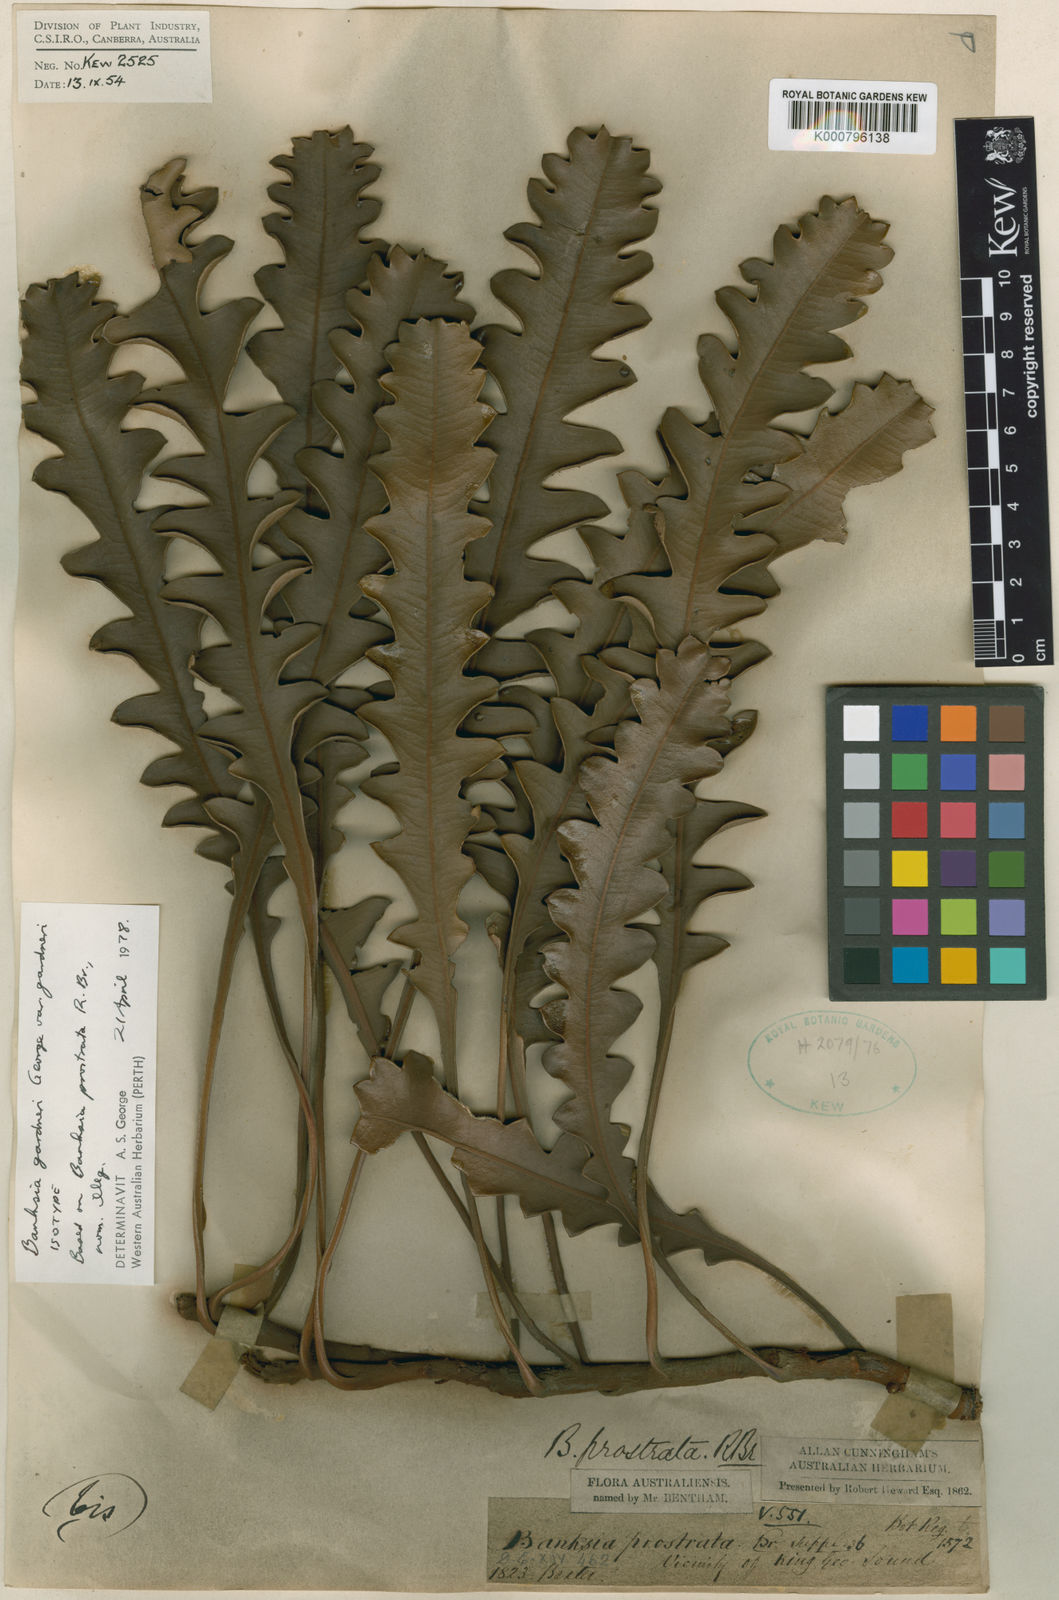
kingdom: Plantae
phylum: Tracheophyta
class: Magnoliopsida
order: Proteales
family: Proteaceae
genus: Banksia
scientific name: Banksia gardneri
